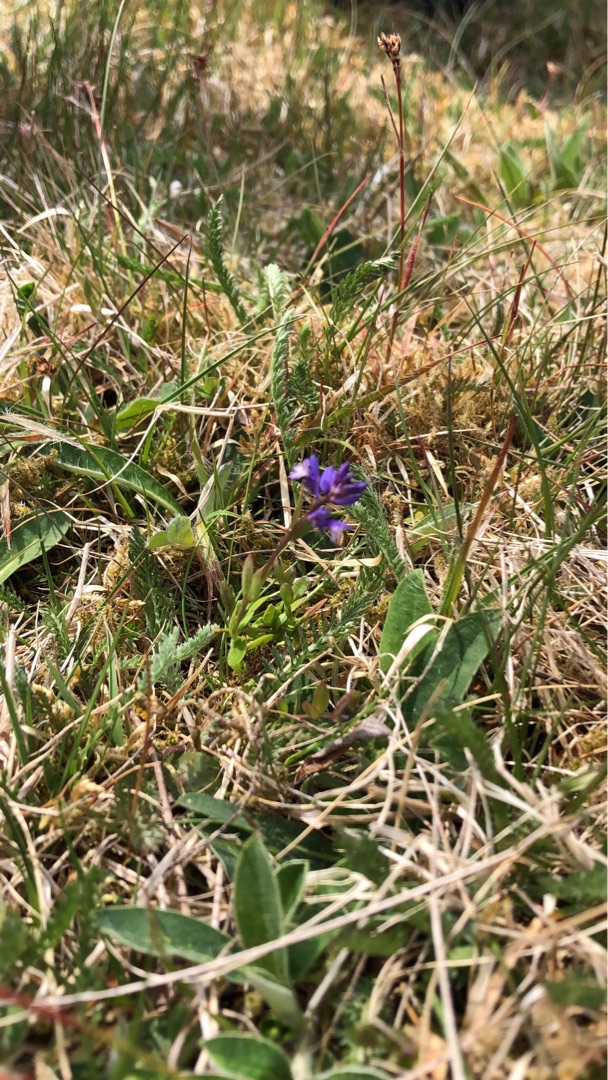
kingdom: Plantae
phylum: Tracheophyta
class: Magnoliopsida
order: Fabales
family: Polygalaceae
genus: Polygala
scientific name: Polygala serpyllifolia
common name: Spæd mælkeurt
